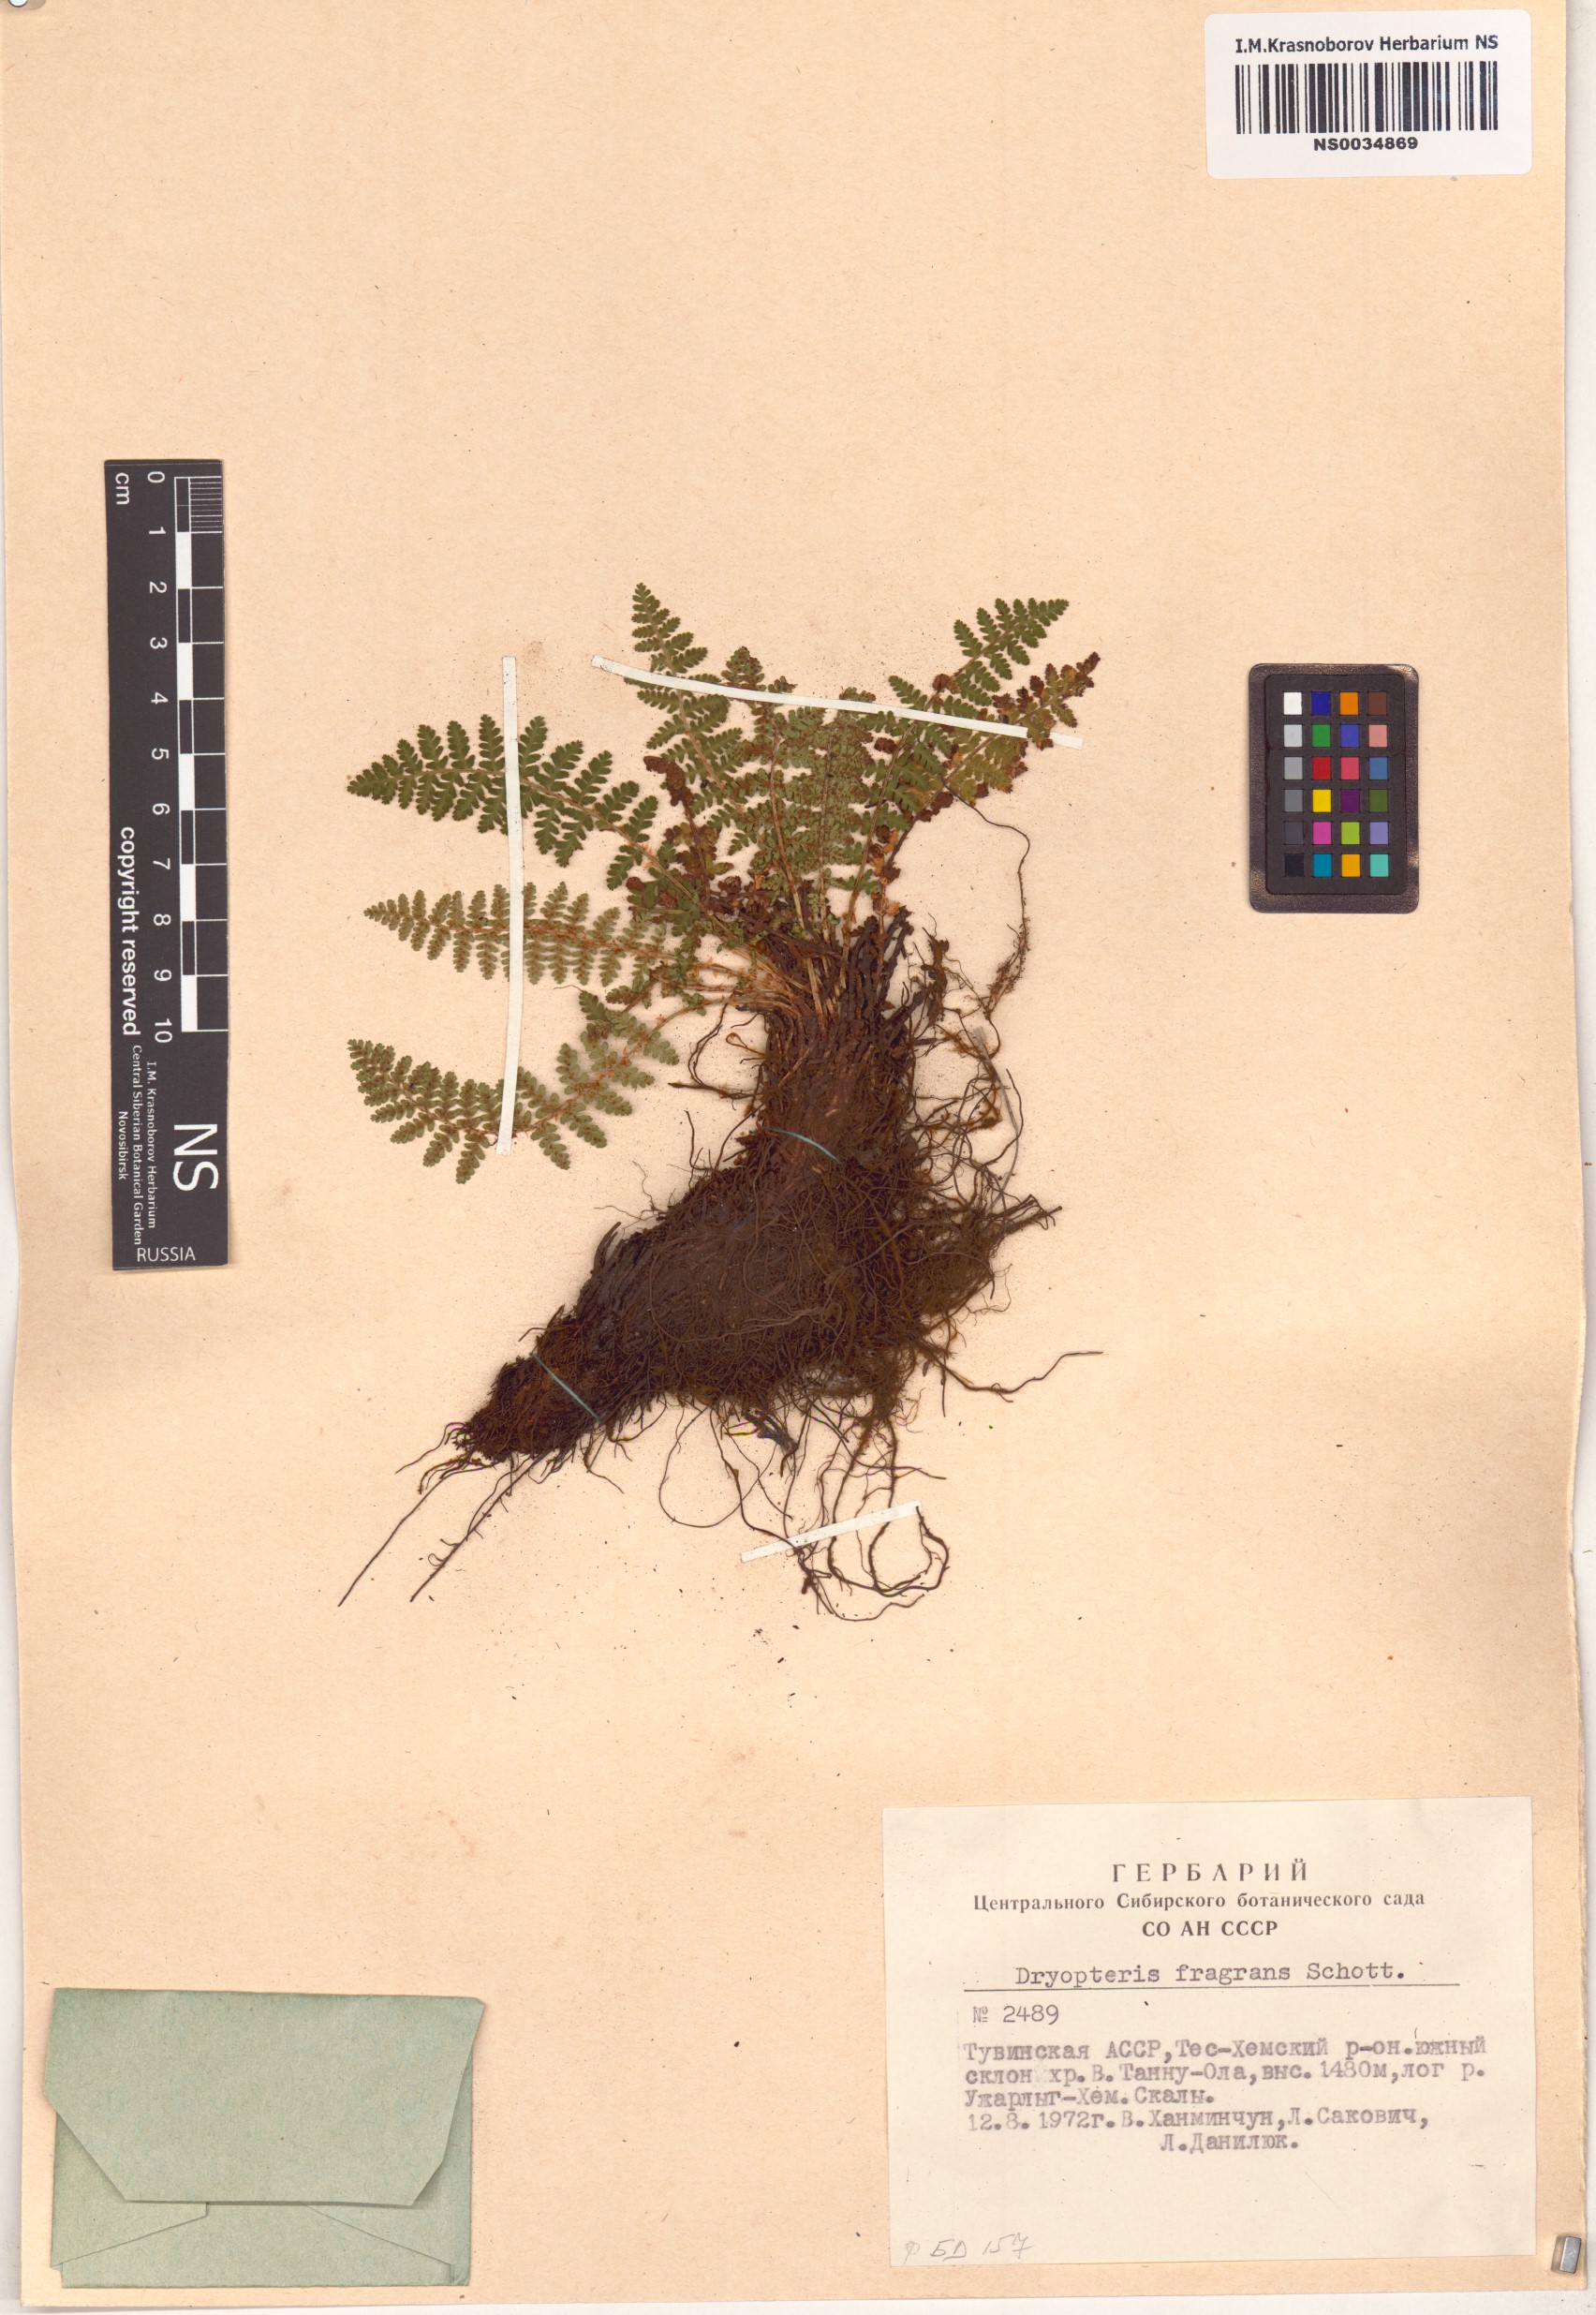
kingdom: Plantae
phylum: Tracheophyta
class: Polypodiopsida
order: Polypodiales
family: Dryopteridaceae
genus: Dryopteris
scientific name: Dryopteris fragrans
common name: Fragrant wood fern
